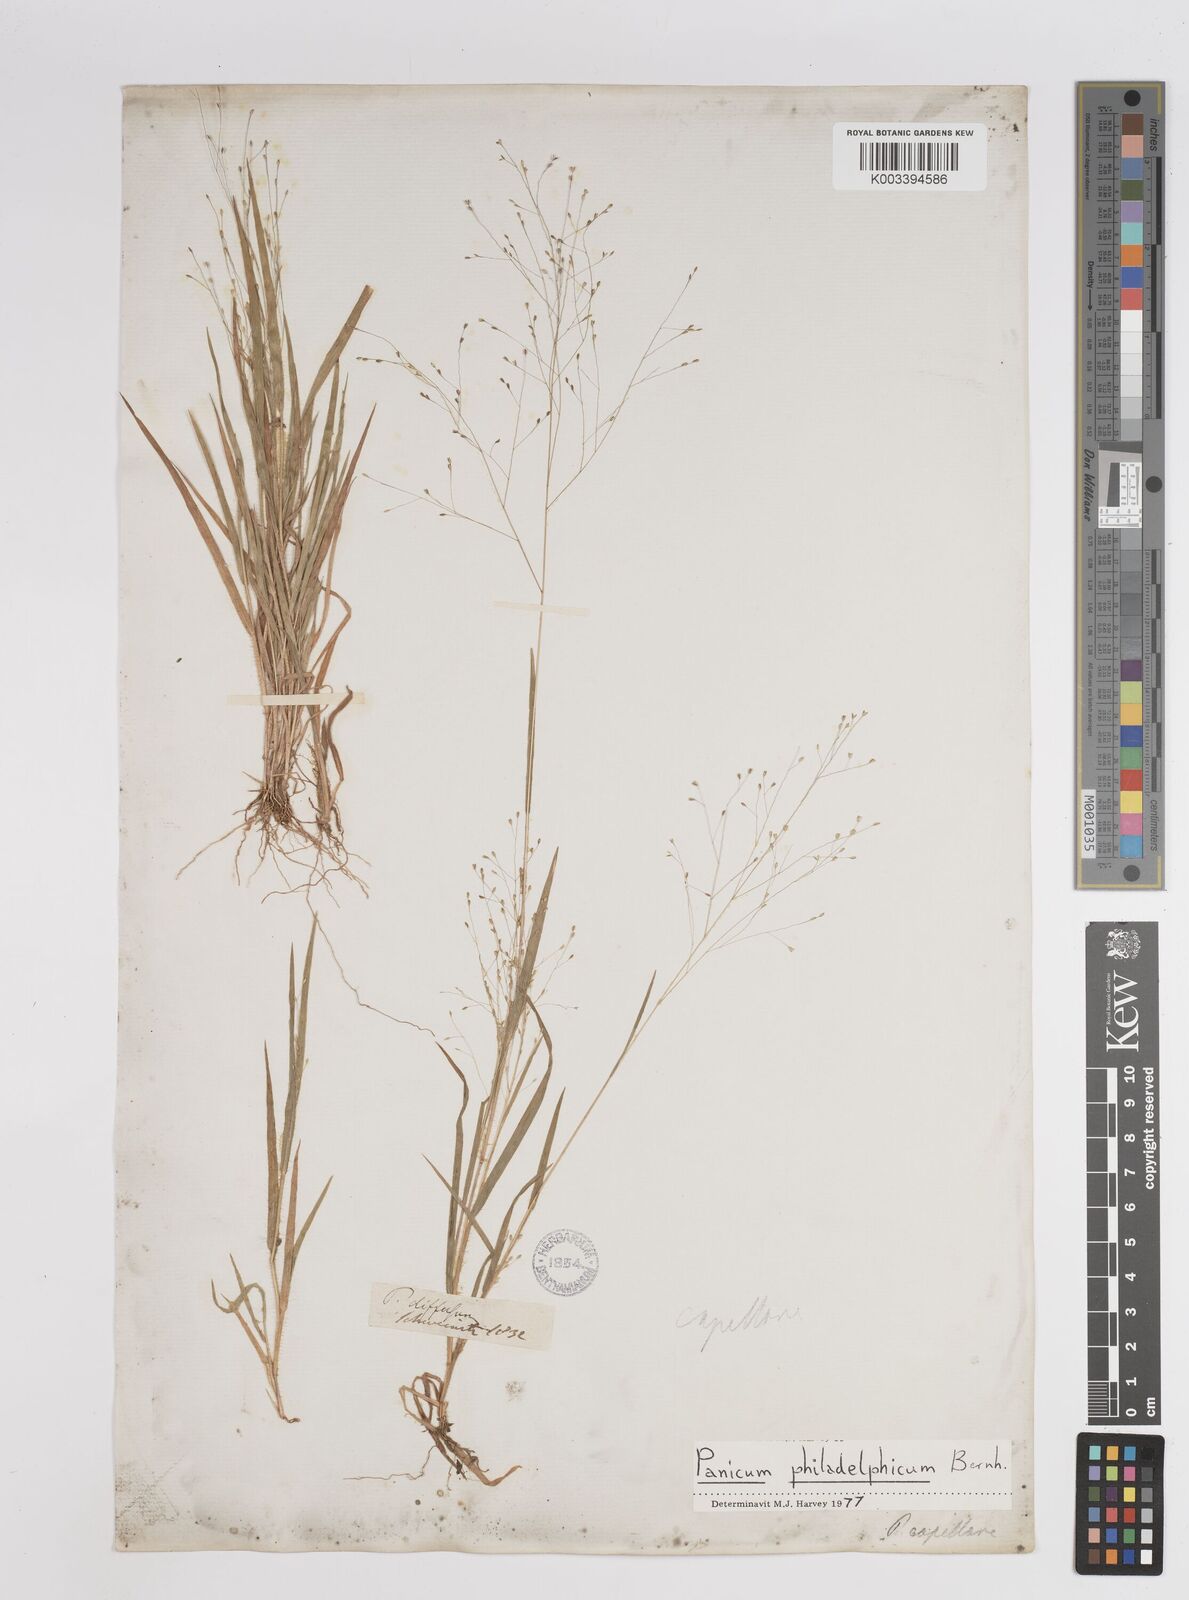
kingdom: Plantae
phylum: Tracheophyta
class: Liliopsida
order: Poales
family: Poaceae
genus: Panicum
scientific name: Panicum philadelphicum
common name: Philadelphia witchgrass
